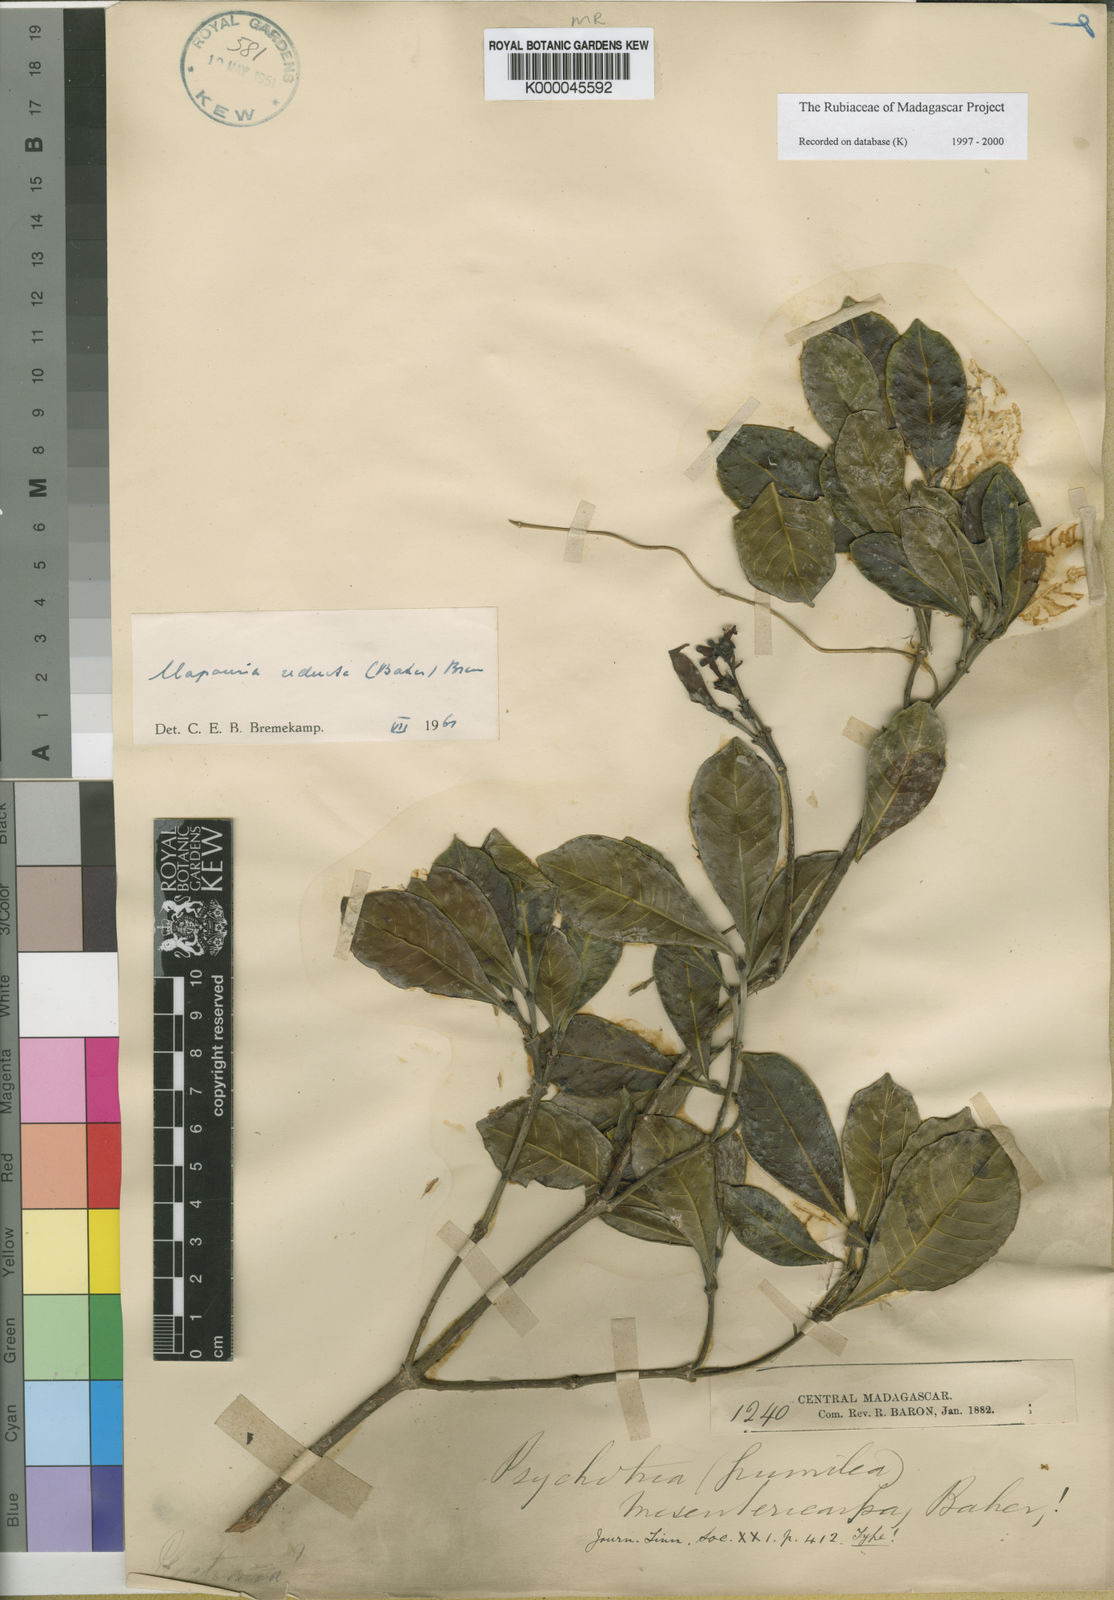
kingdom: Plantae
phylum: Tracheophyta
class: Magnoliopsida
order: Gentianales
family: Rubiaceae
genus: Psychotria
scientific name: Psychotria reducta
